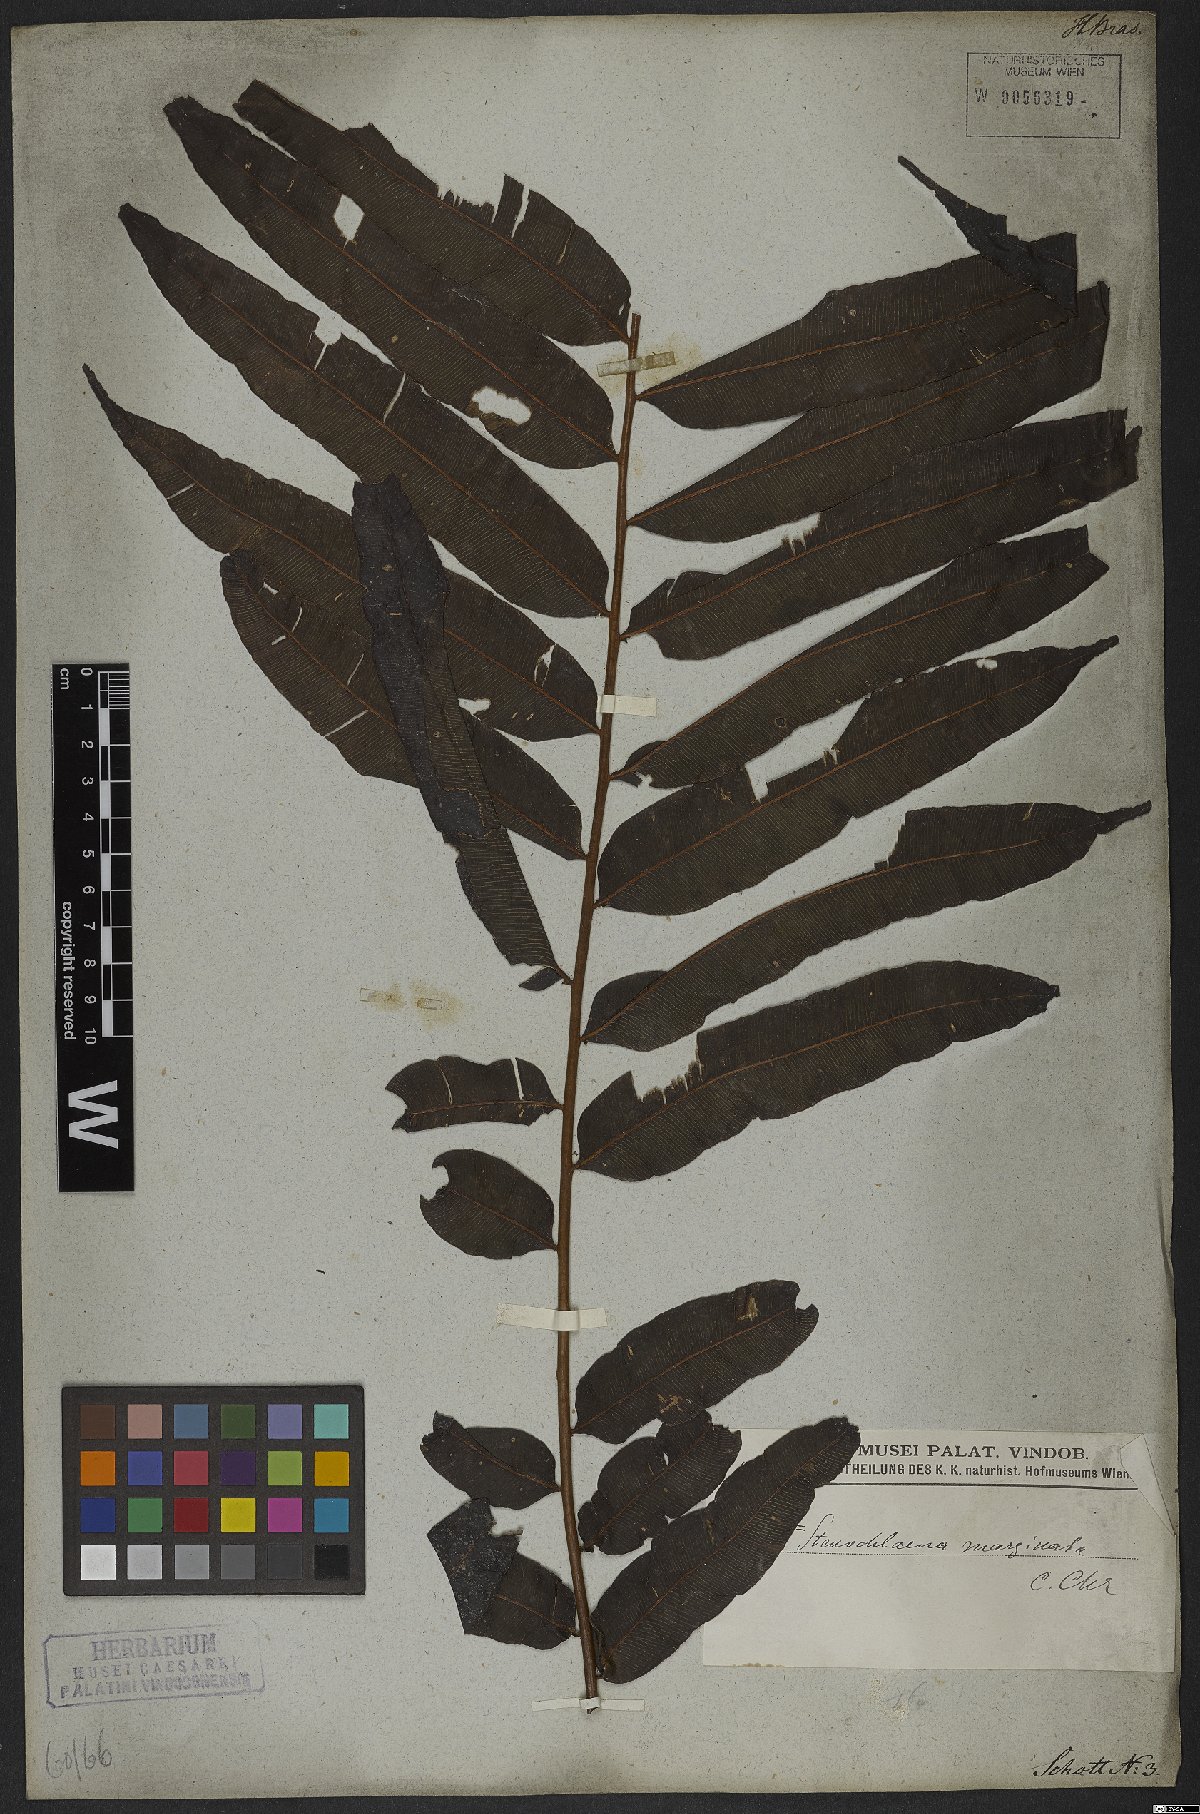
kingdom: Plantae
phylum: Tracheophyta
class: Polypodiopsida
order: Polypodiales
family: Lomariopsidaceae
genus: Lomariopsis
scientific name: Lomariopsis marginata
